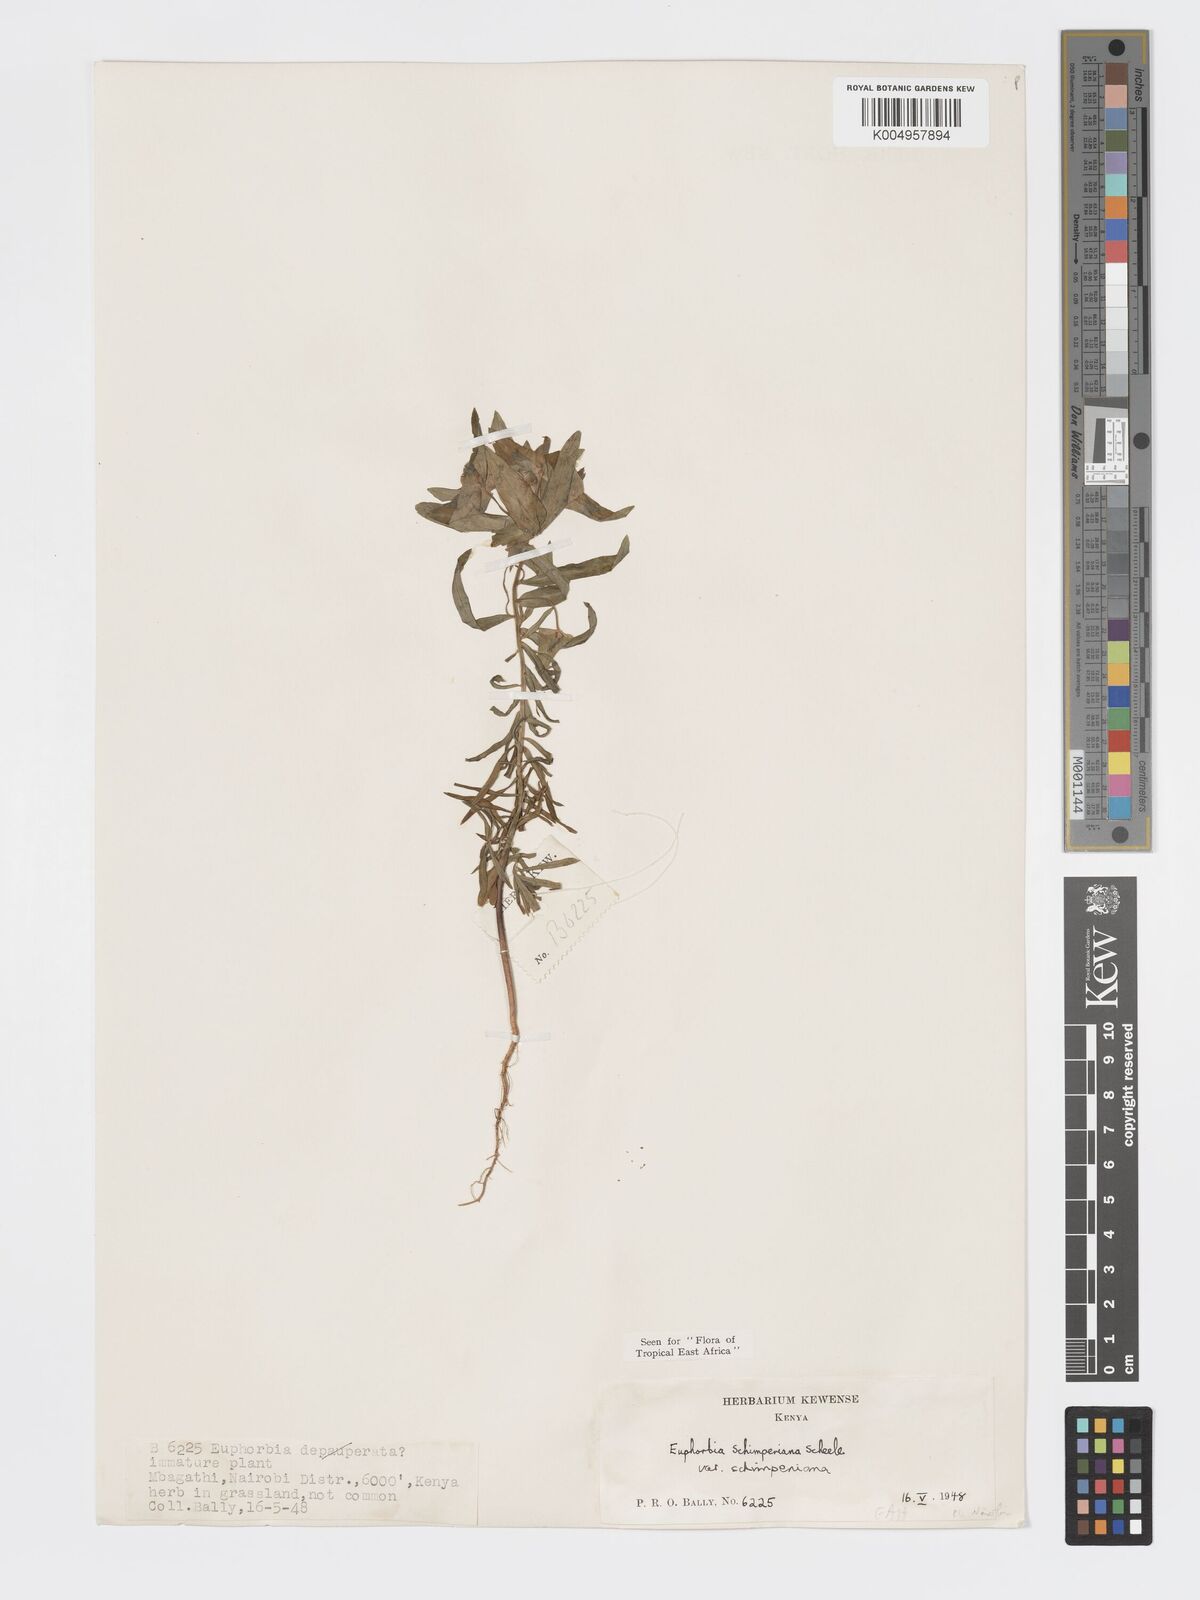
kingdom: Plantae
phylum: Tracheophyta
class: Magnoliopsida
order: Malpighiales
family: Euphorbiaceae
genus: Euphorbia
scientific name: Euphorbia schimperiana
